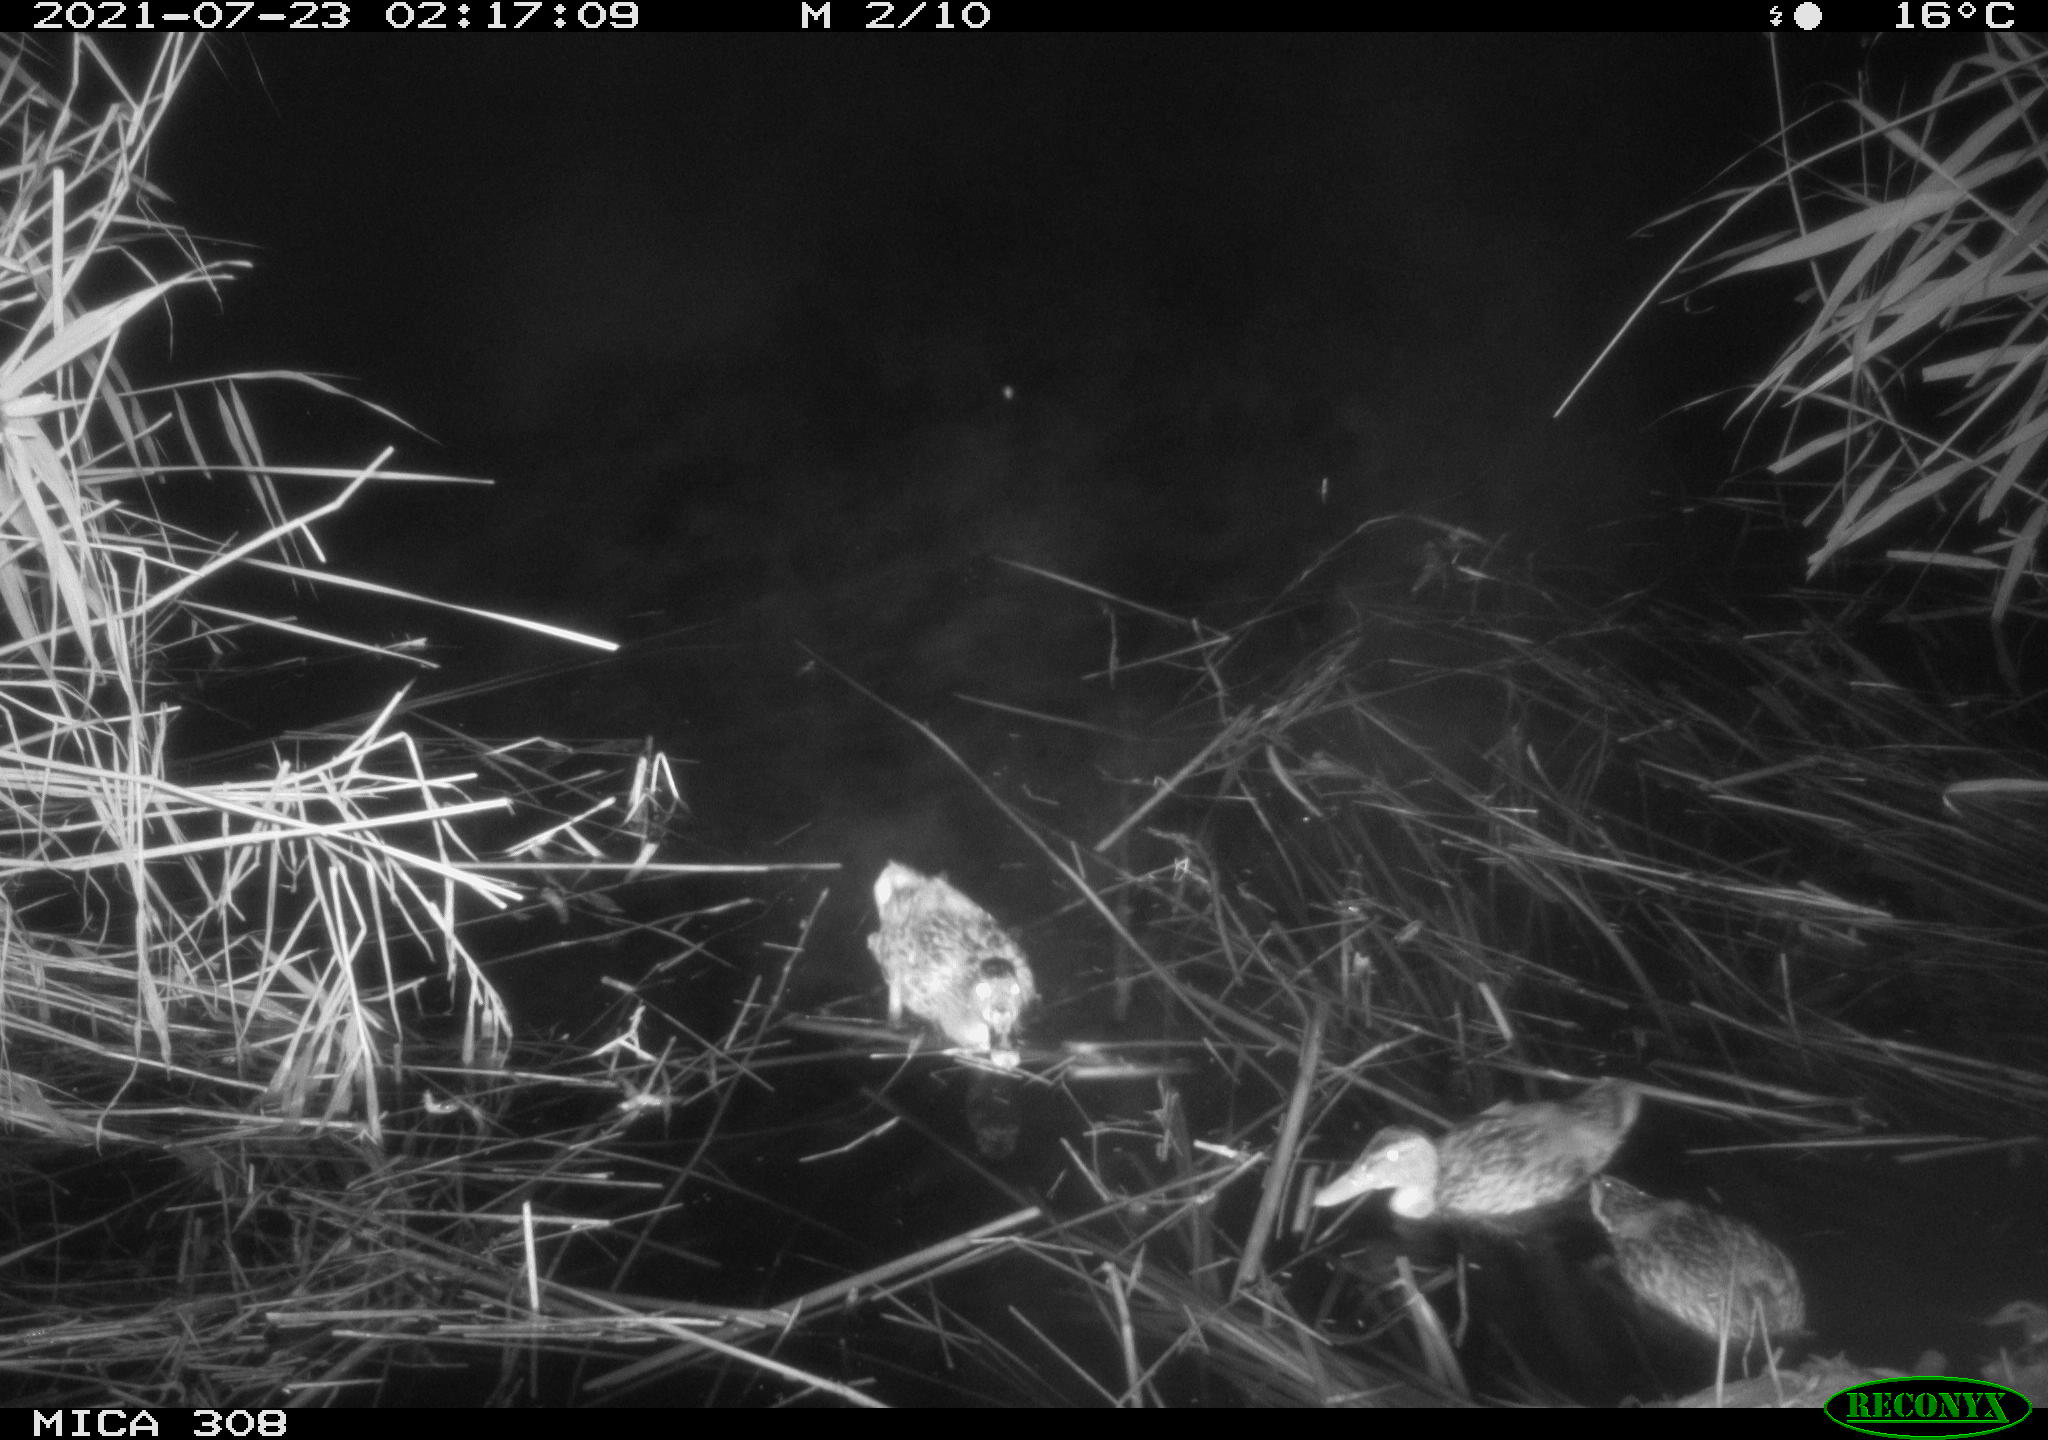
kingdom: Animalia
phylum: Chordata
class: Aves
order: Anseriformes
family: Anatidae
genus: Anas
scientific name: Anas platyrhynchos
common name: Mallard
